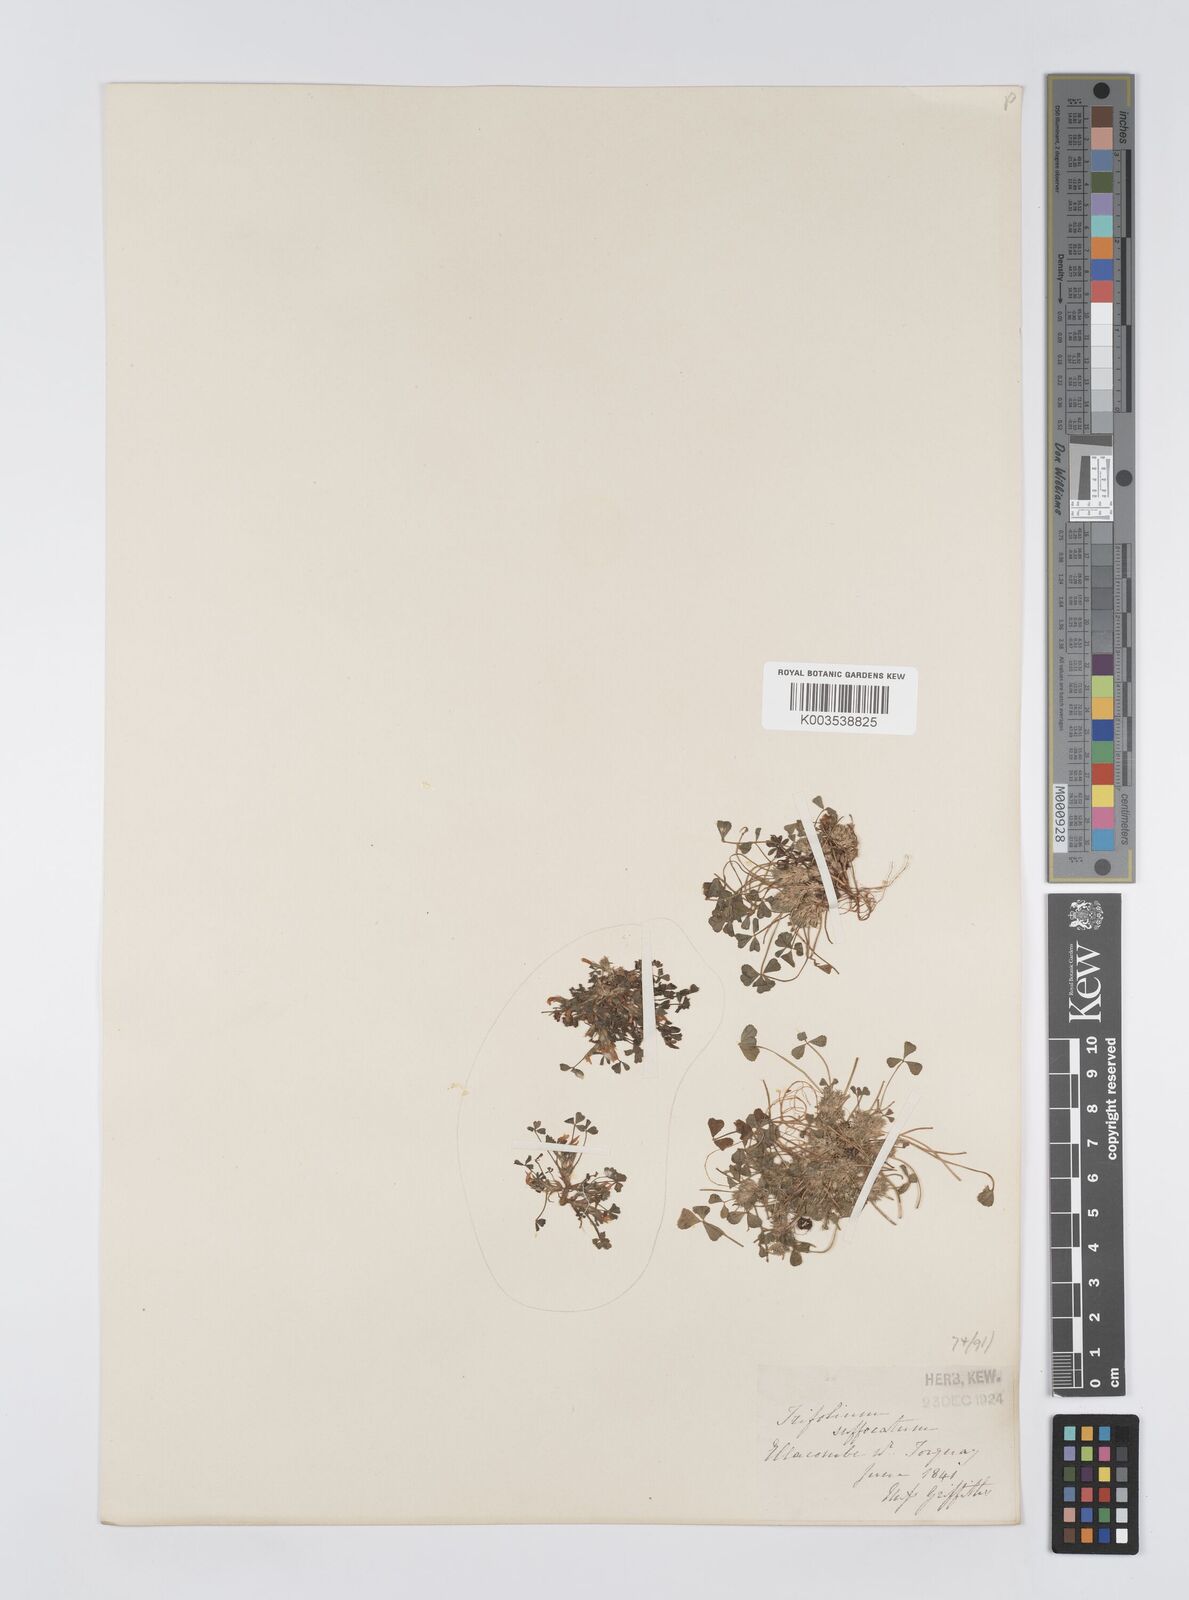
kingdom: Plantae
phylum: Tracheophyta
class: Magnoliopsida
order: Fabales
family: Fabaceae
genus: Trifolium
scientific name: Trifolium suffocatum
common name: Suffocated clover
